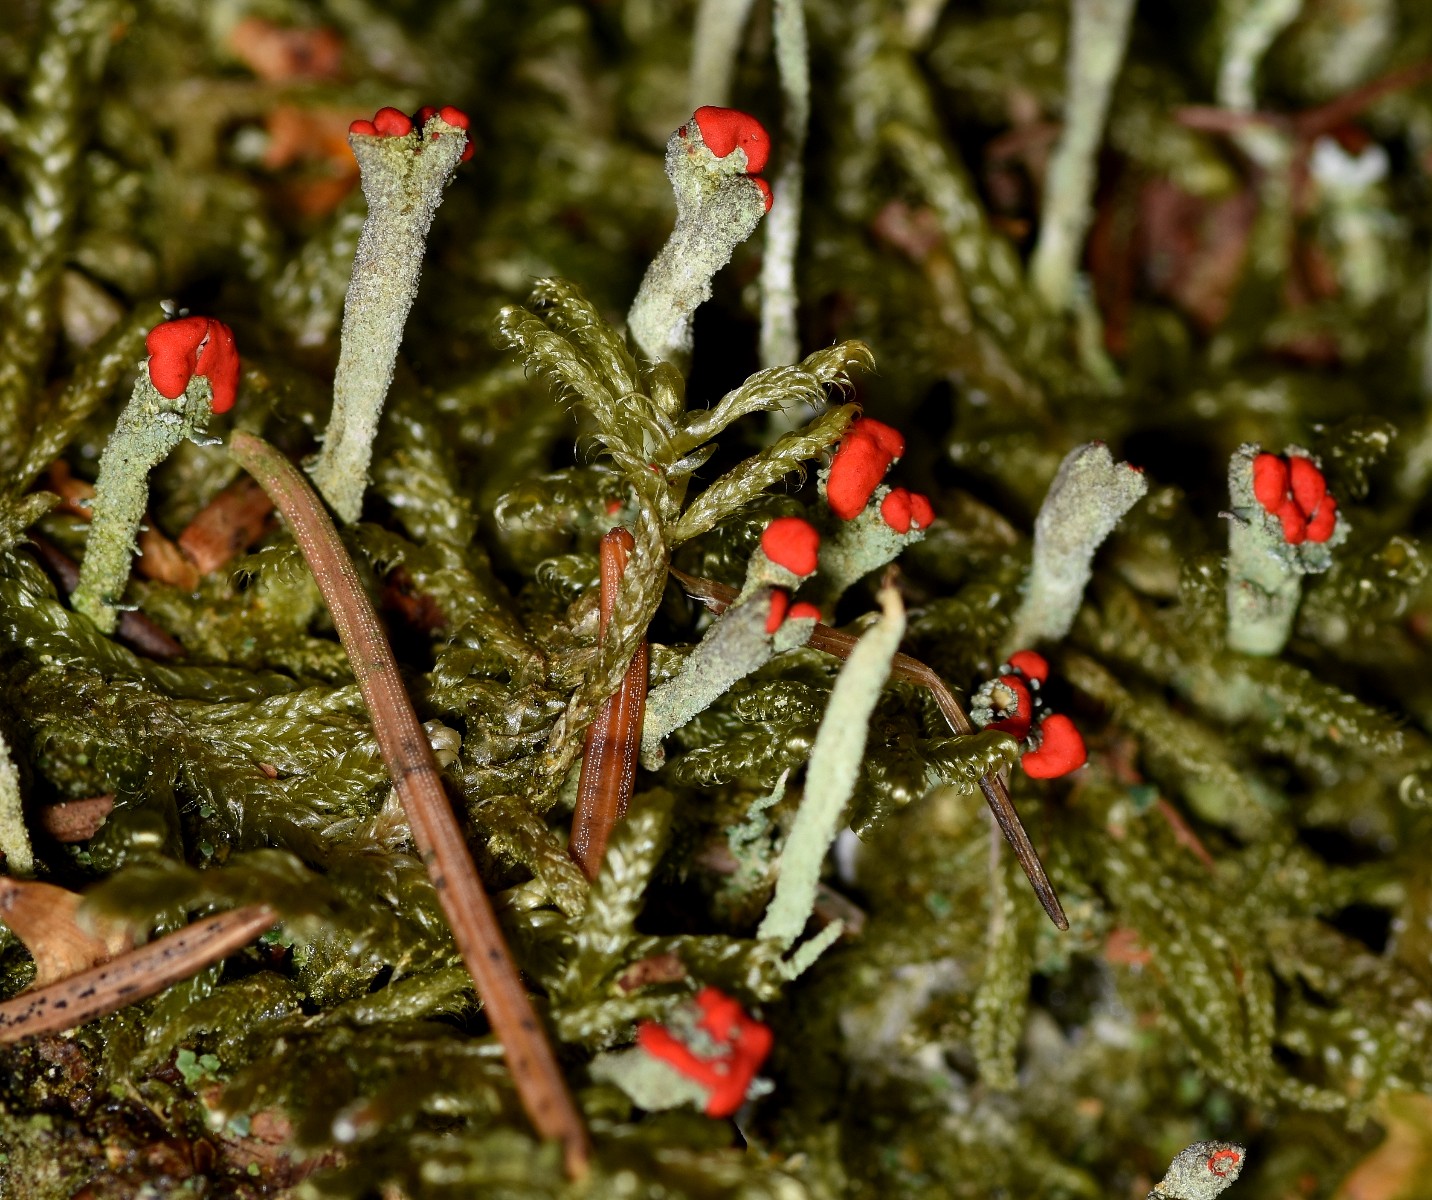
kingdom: Fungi
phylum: Ascomycota
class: Lecanoromycetes
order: Lecanorales
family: Cladoniaceae
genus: Cladonia
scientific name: Cladonia floerkeana
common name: lakrød bægerlav
